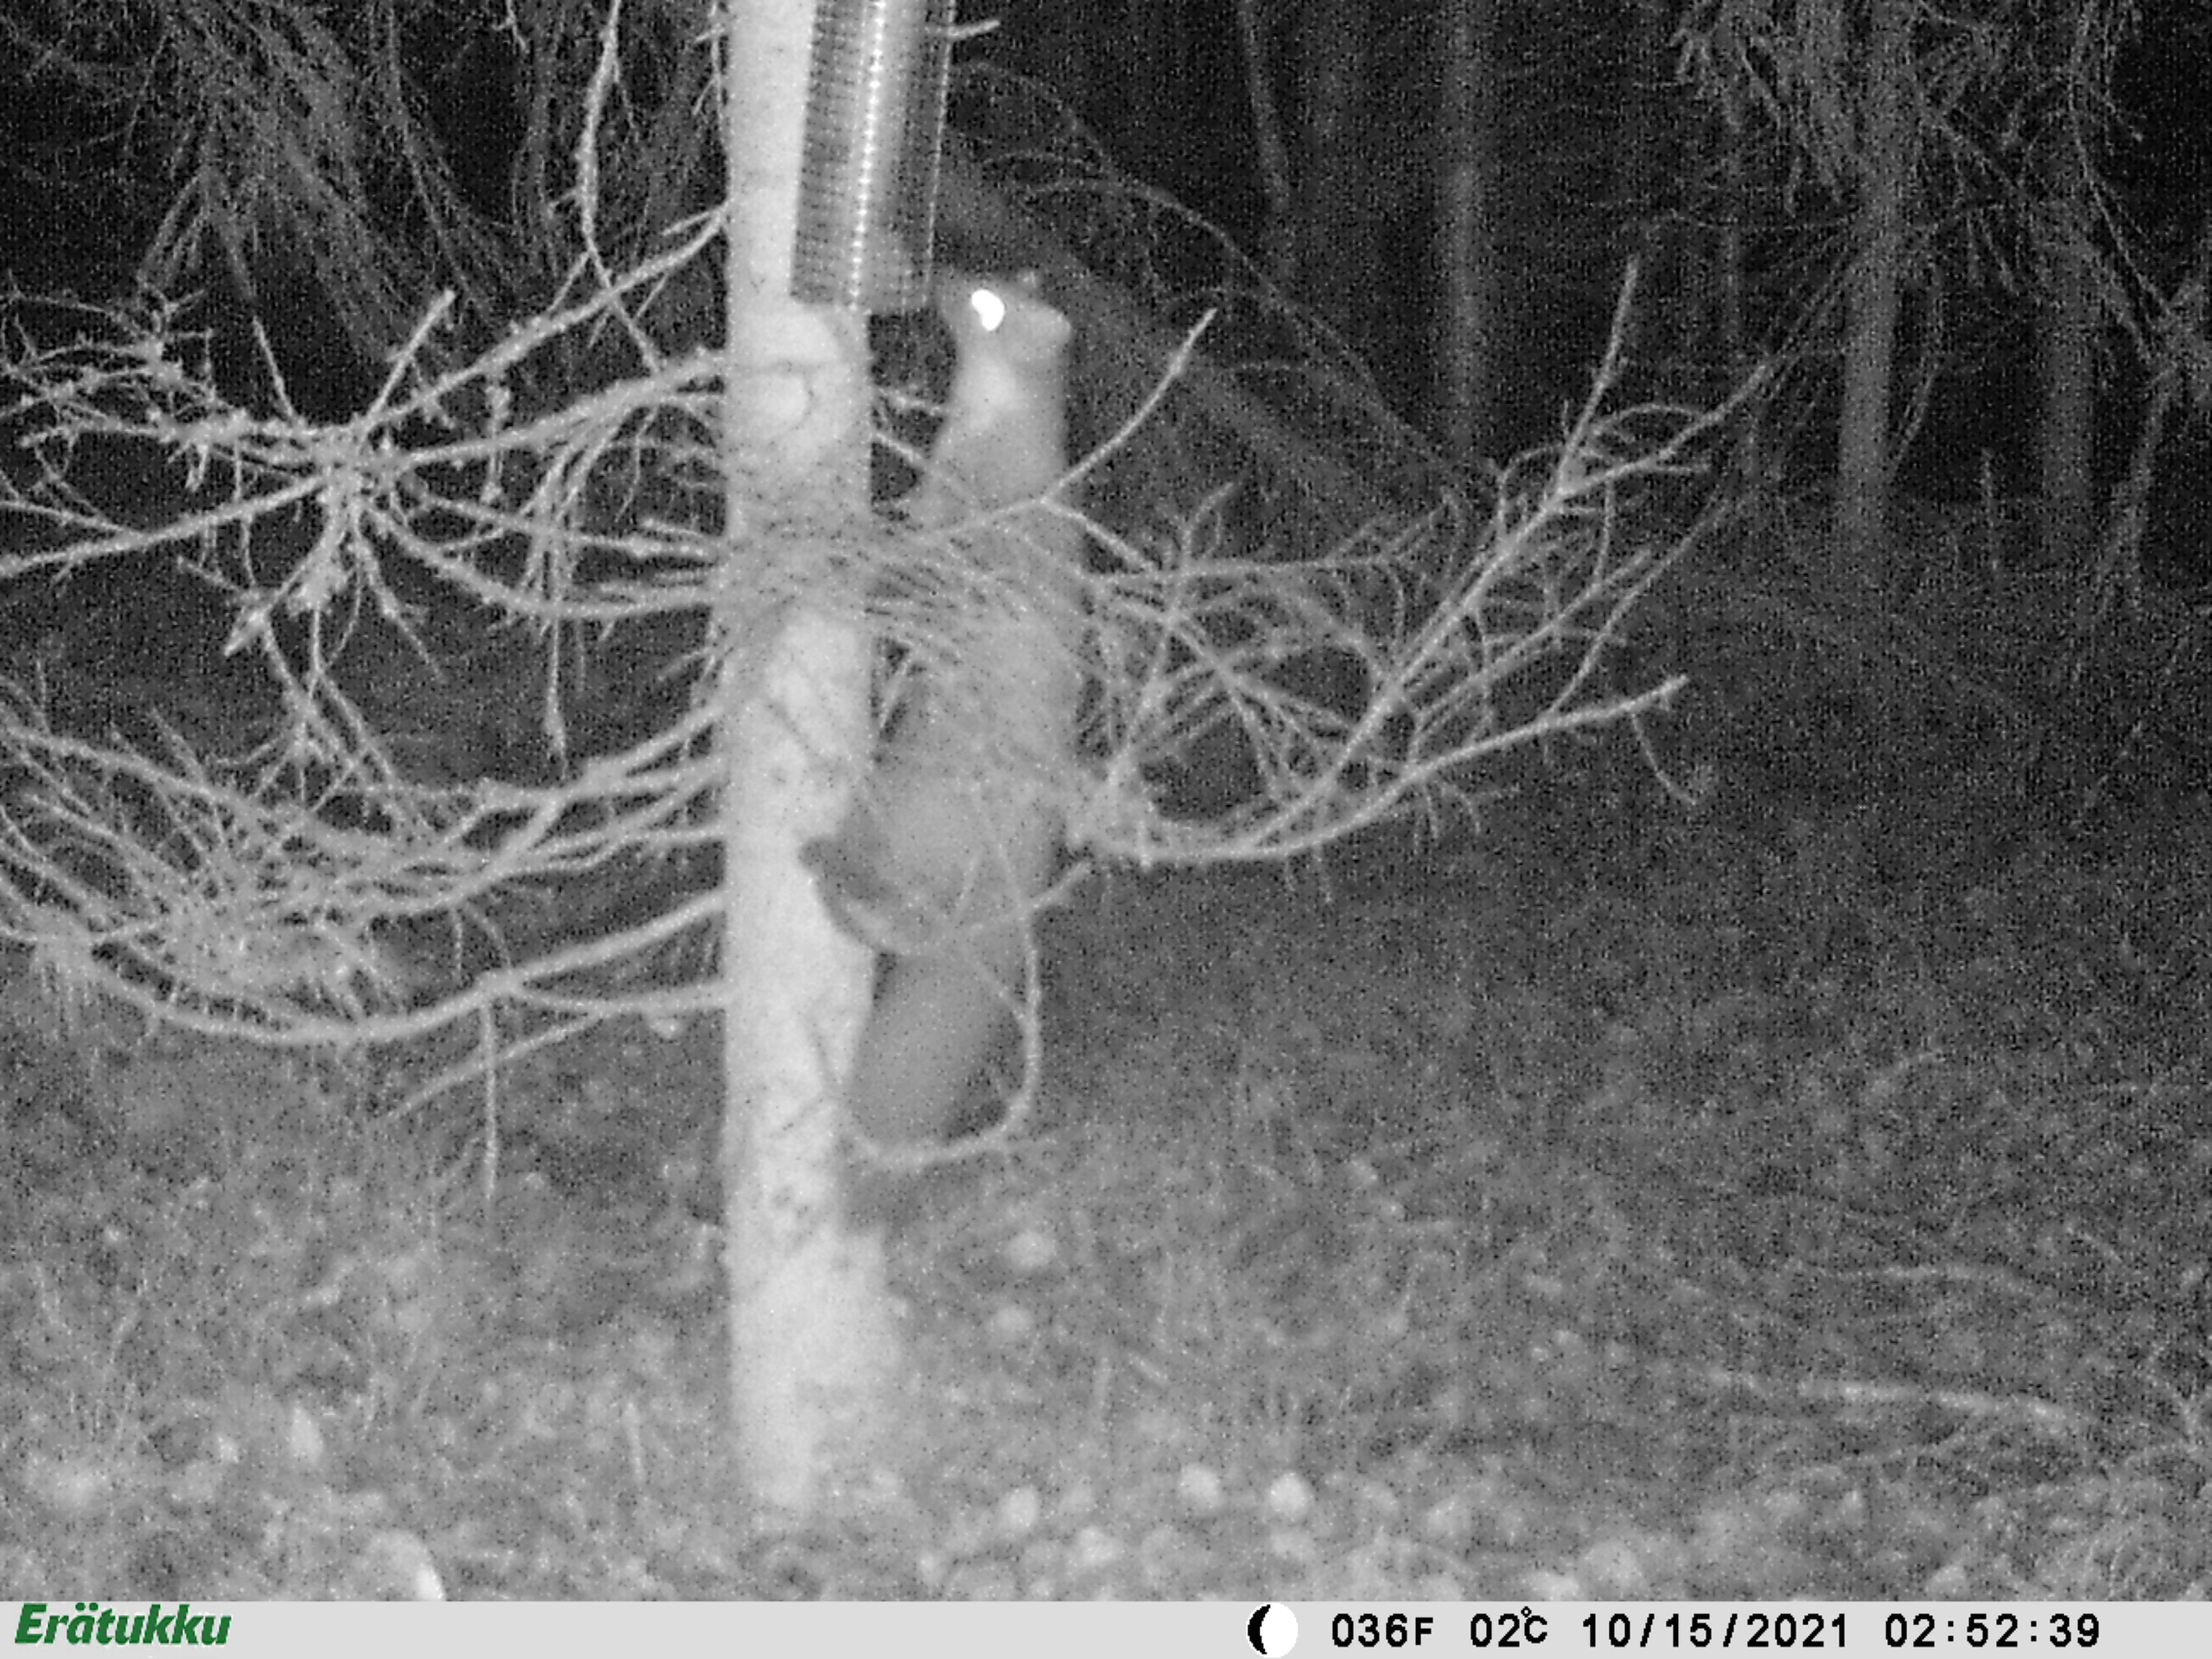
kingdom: Animalia
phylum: Chordata
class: Mammalia
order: Carnivora
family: Mustelidae
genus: Martes
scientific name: Martes martes
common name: European pine marten
